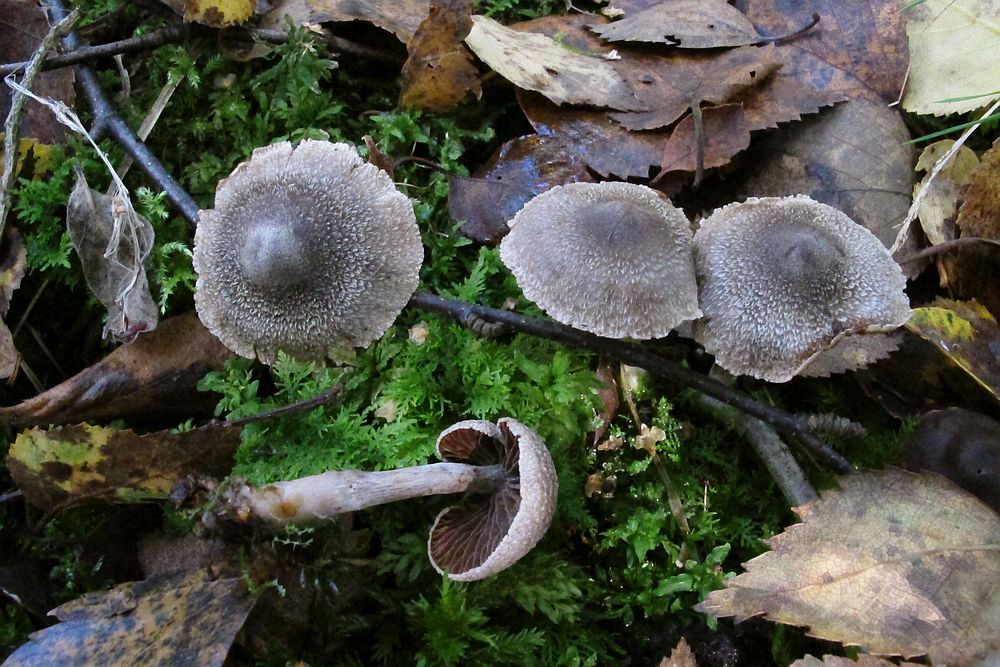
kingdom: Fungi
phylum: Basidiomycota
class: Agaricomycetes
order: Agaricales
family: Cortinariaceae
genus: Cortinarius
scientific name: Cortinarius
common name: pelargonie-slørhat
